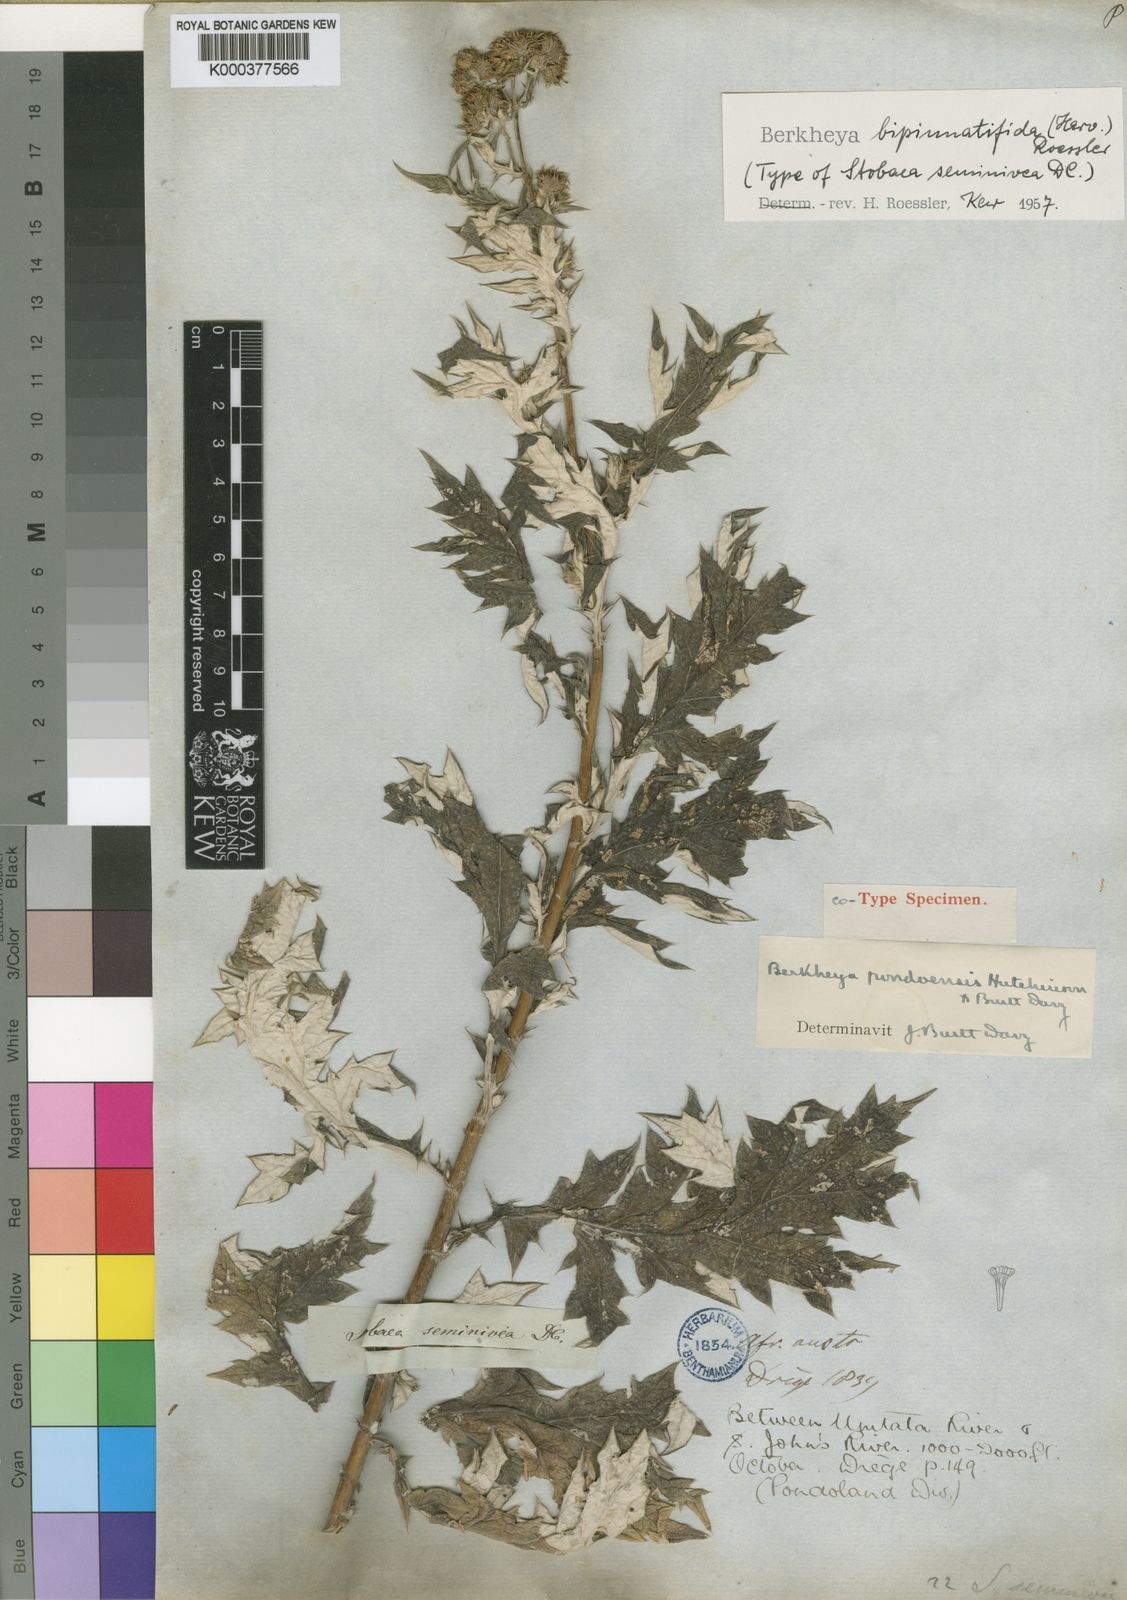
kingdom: Plantae
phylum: Tracheophyta
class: Magnoliopsida
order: Asterales
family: Asteraceae
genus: Berkheya
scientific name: Berkheya pinnatifida
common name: Lobed african thistle
